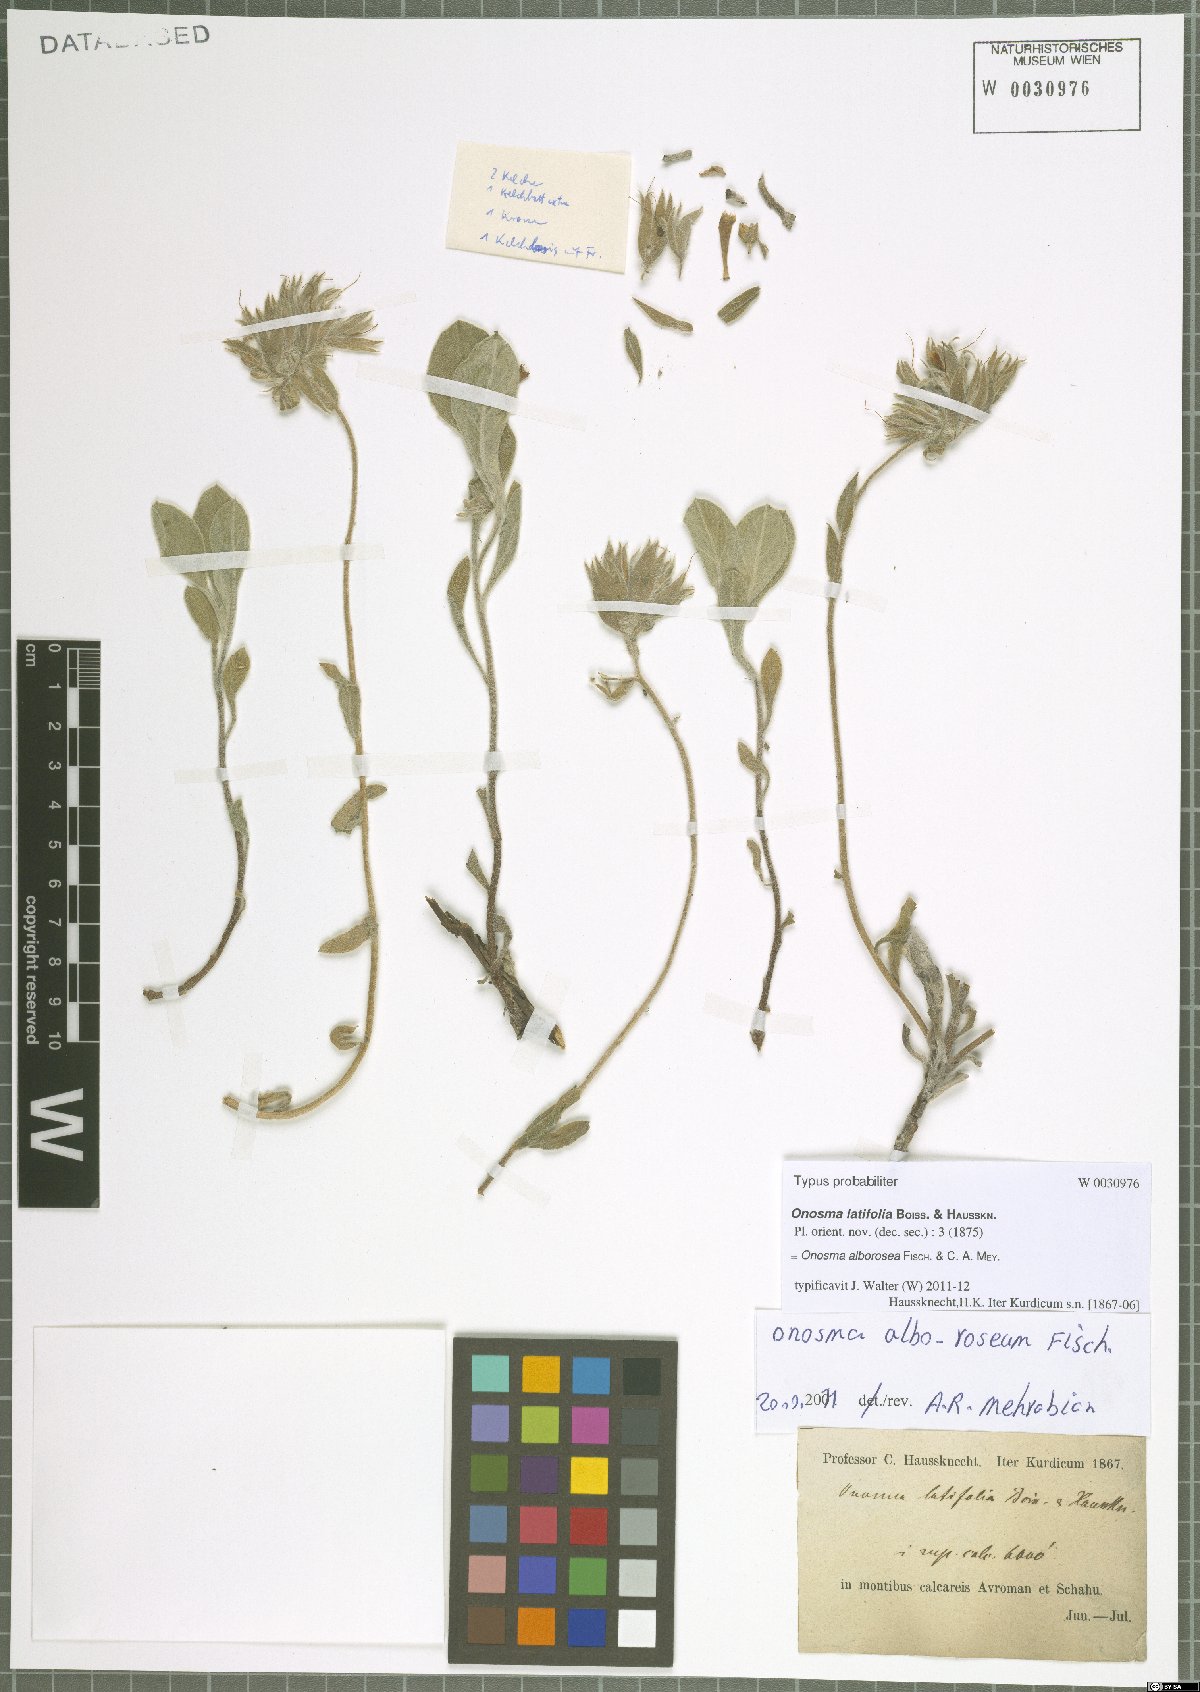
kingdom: Plantae
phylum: Tracheophyta
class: Magnoliopsida
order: Boraginales
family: Boraginaceae
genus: Onosma
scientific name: Onosma latifolia
